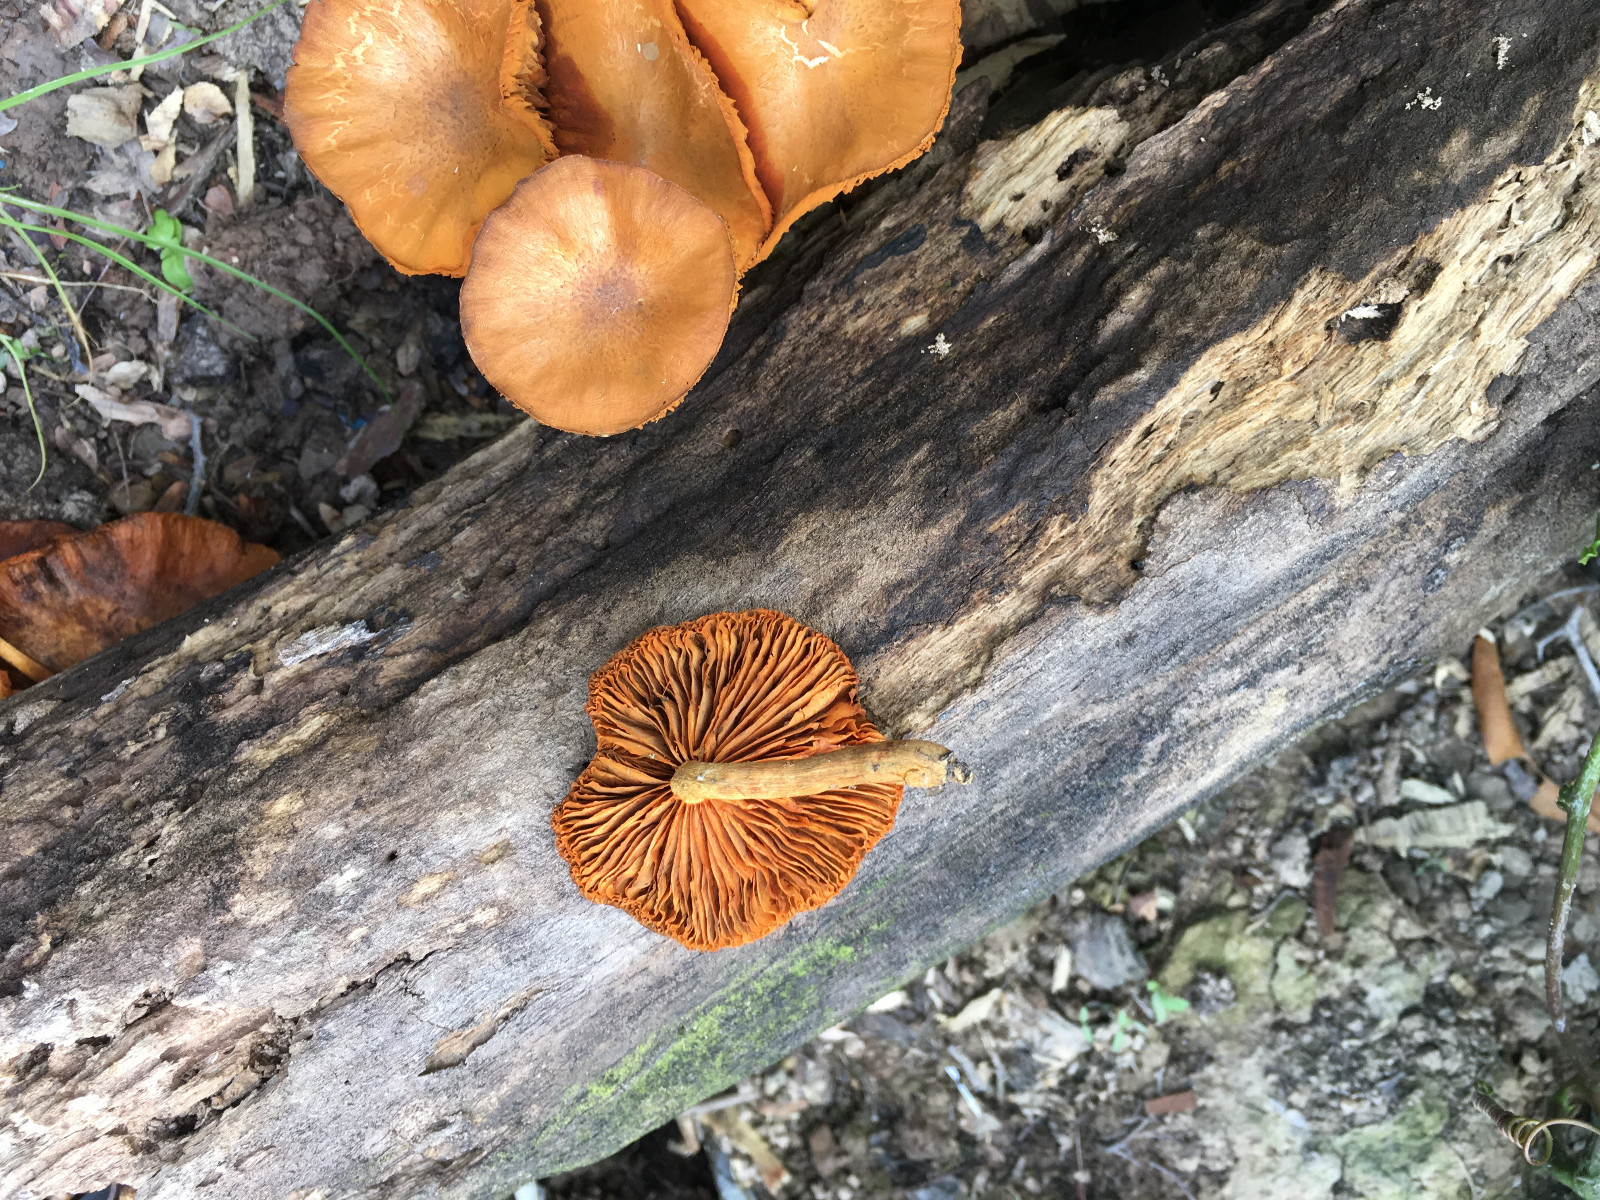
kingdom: Fungi
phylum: Basidiomycota
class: Agaricomycetes
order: Agaricales
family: Hymenogastraceae
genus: Gymnopilus
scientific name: Gymnopilus
